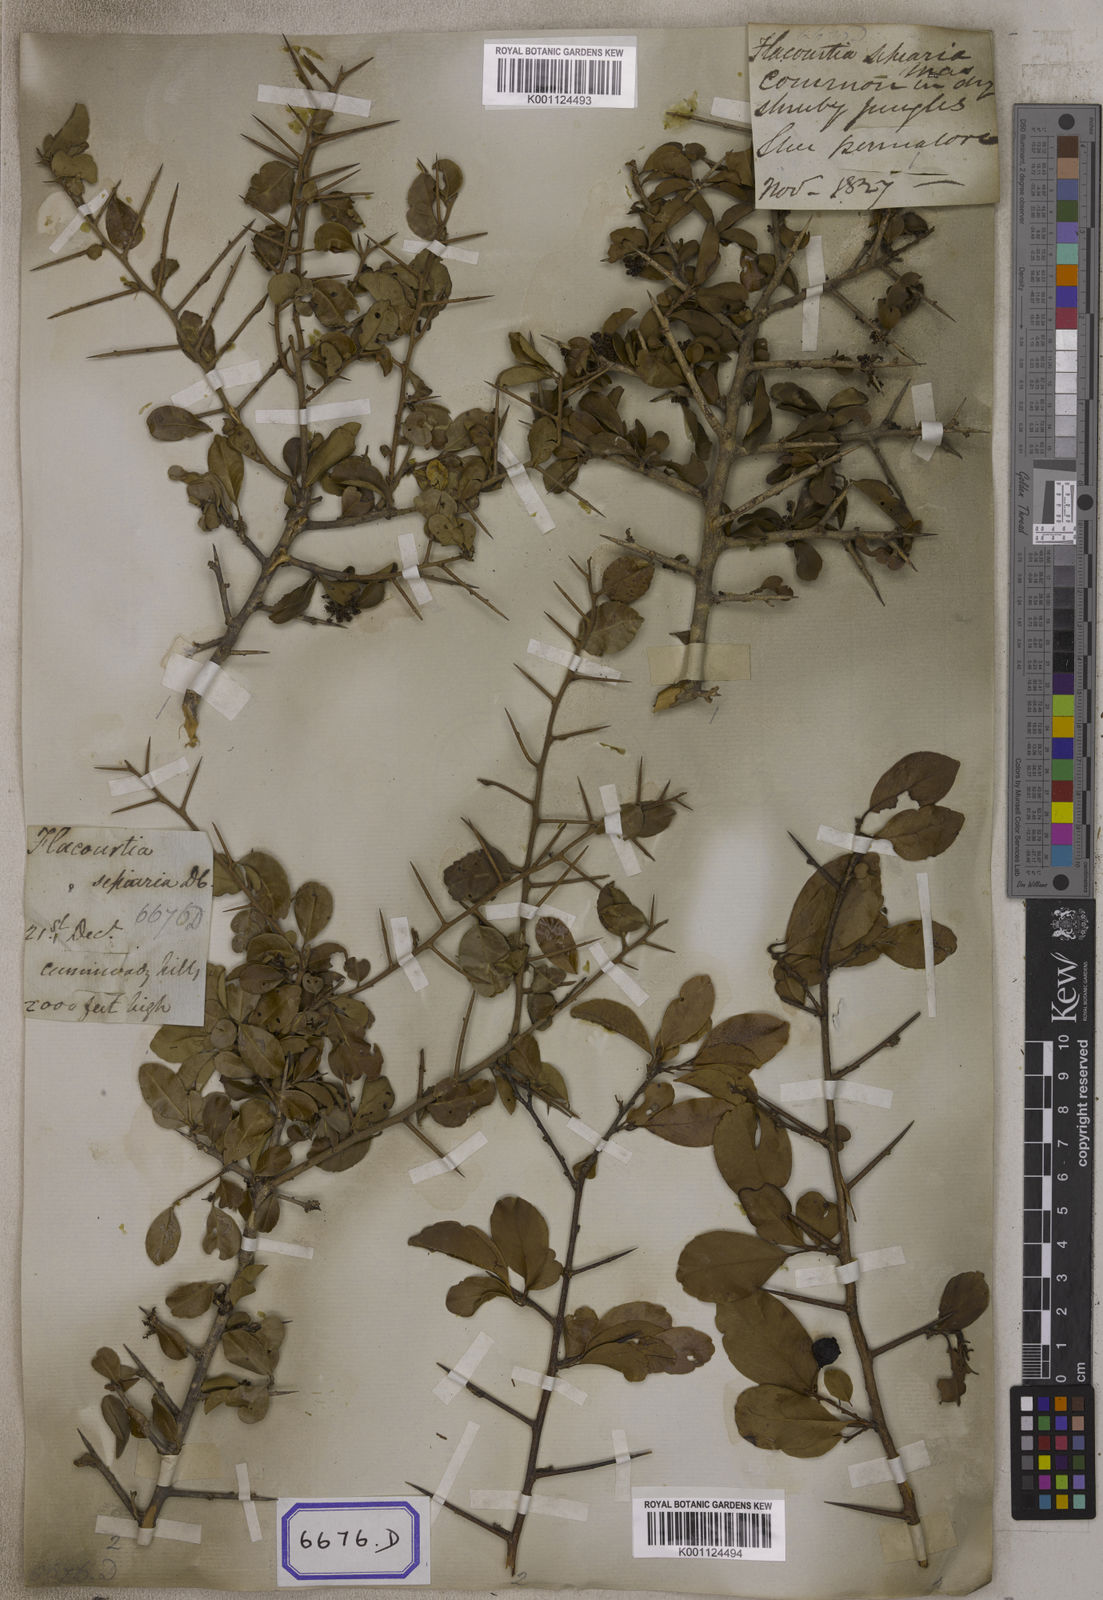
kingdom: Plantae
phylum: Tracheophyta
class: Magnoliopsida
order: Malpighiales
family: Salicaceae
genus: Flacourtia
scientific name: Flacourtia indica
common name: Governor's plum
